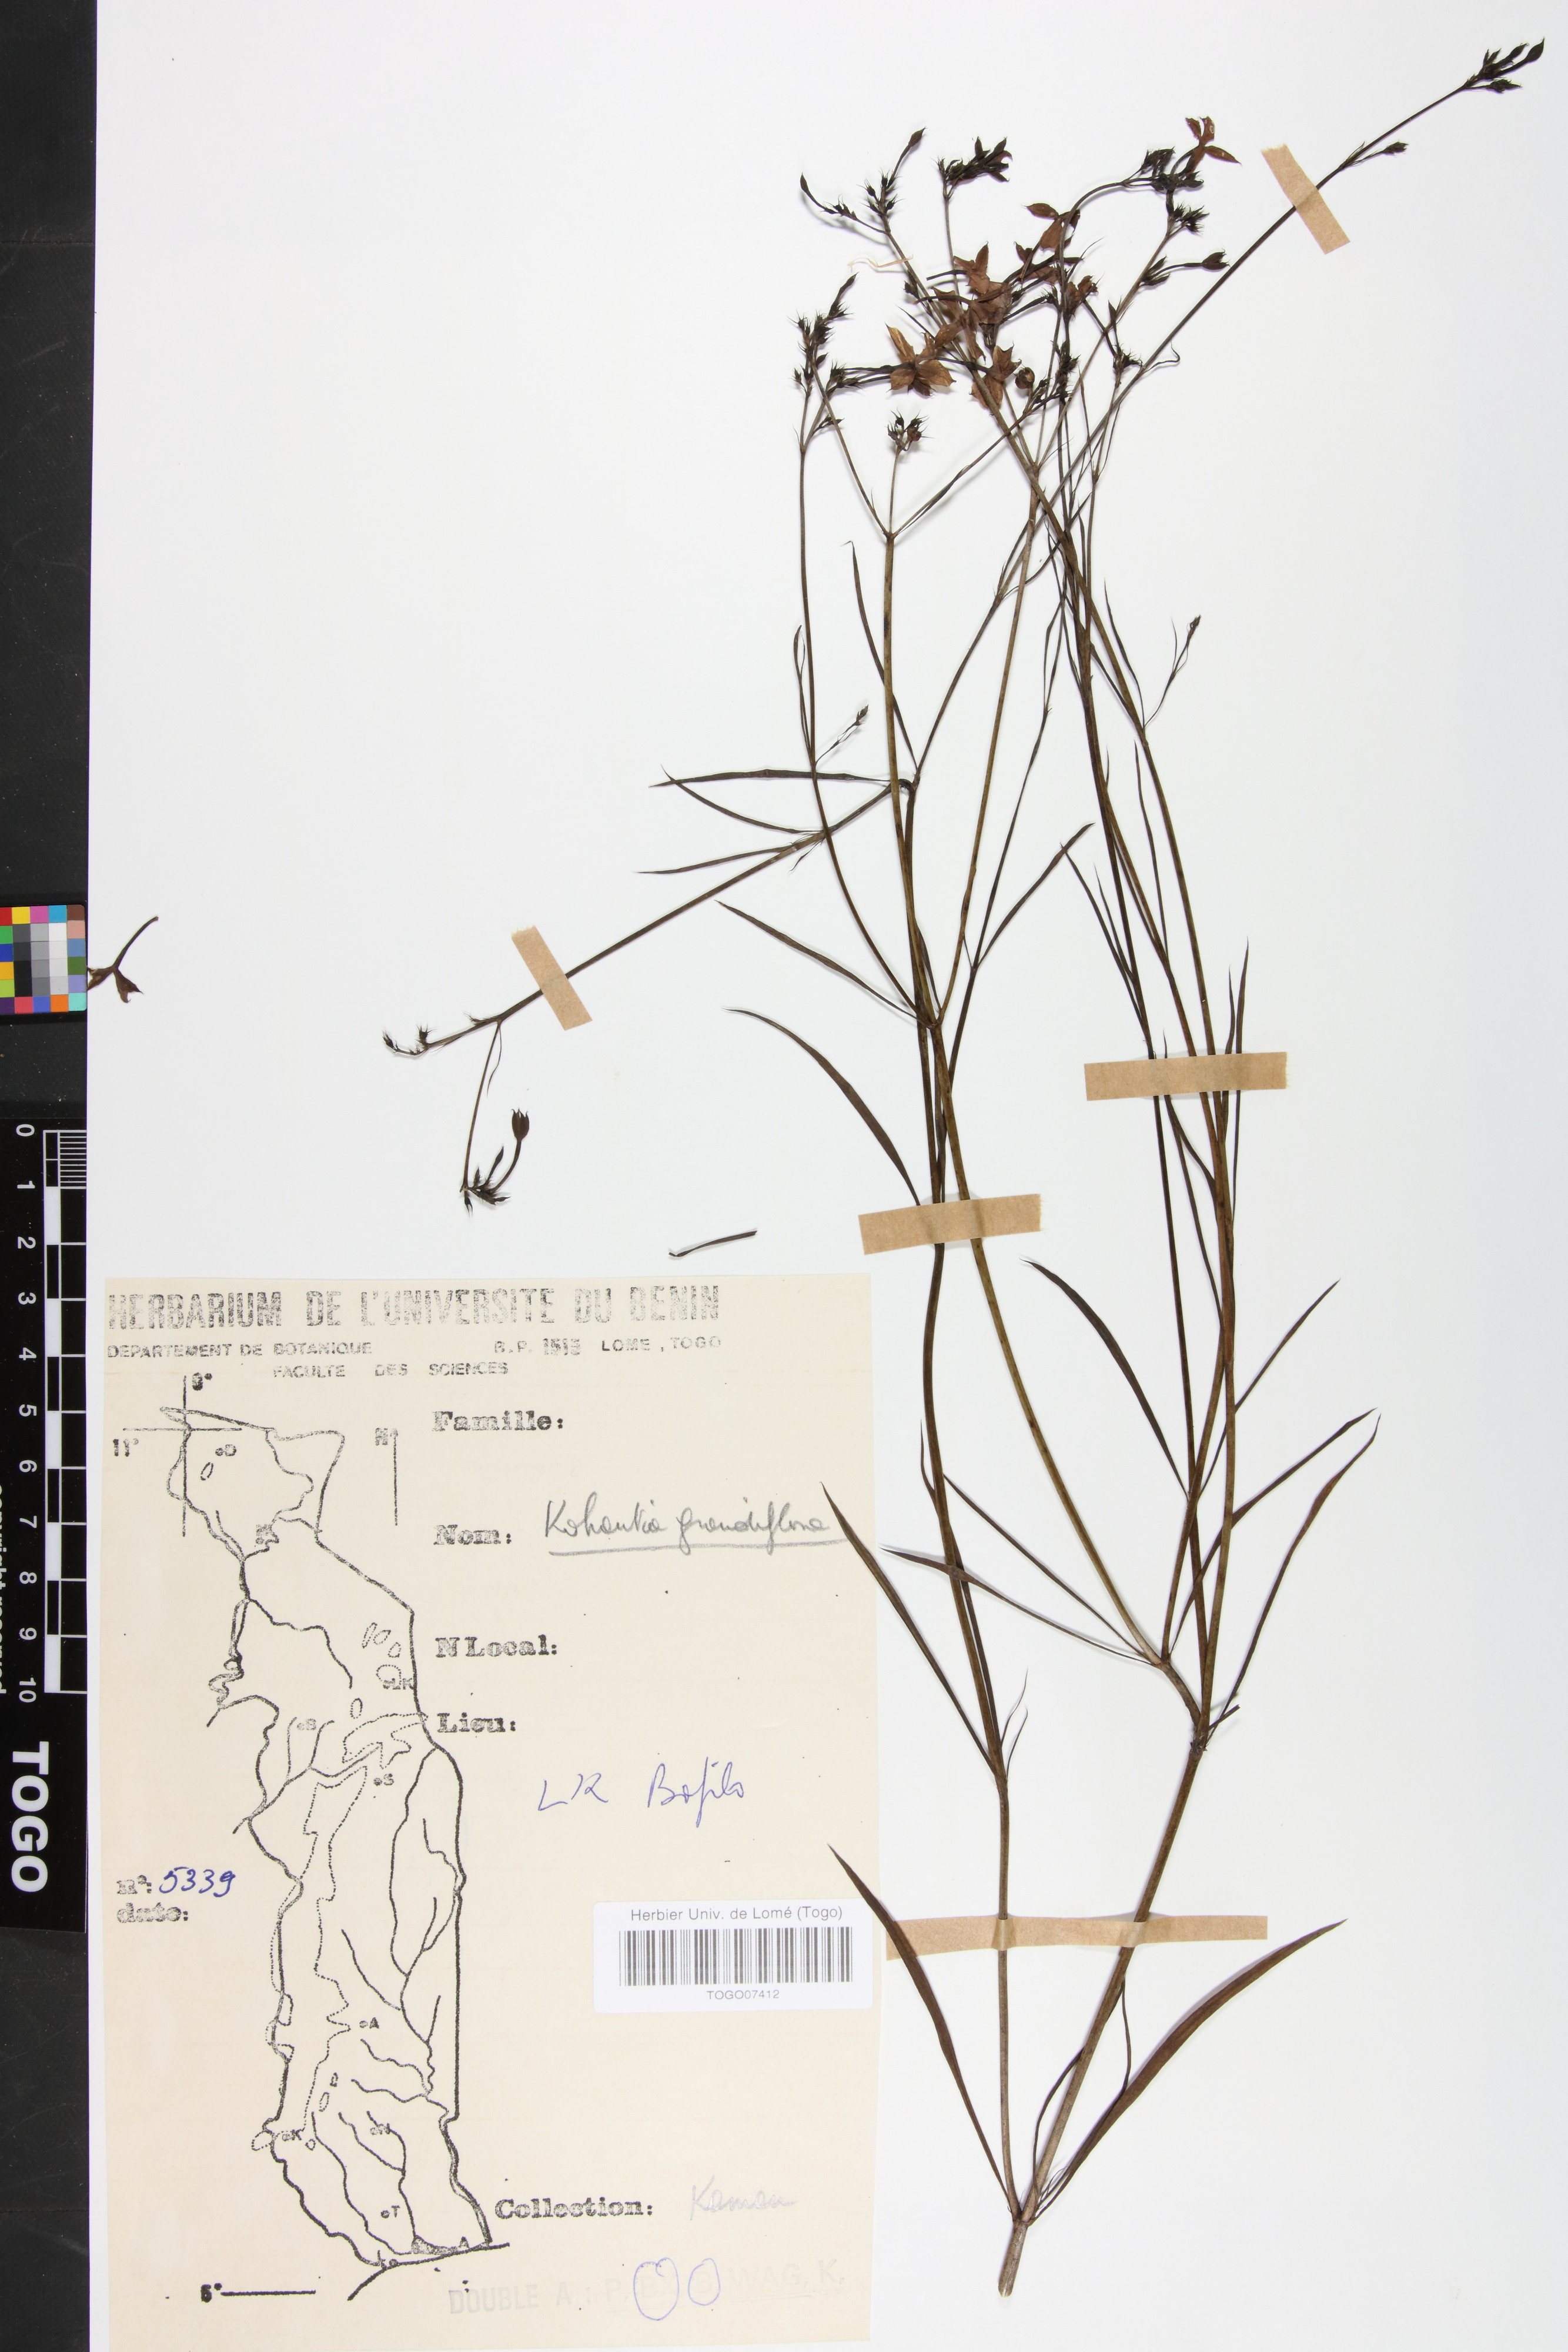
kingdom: Plantae
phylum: Tracheophyta
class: Magnoliopsida
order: Gentianales
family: Rubiaceae
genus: Kohautia
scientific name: Kohautia grandiflora
